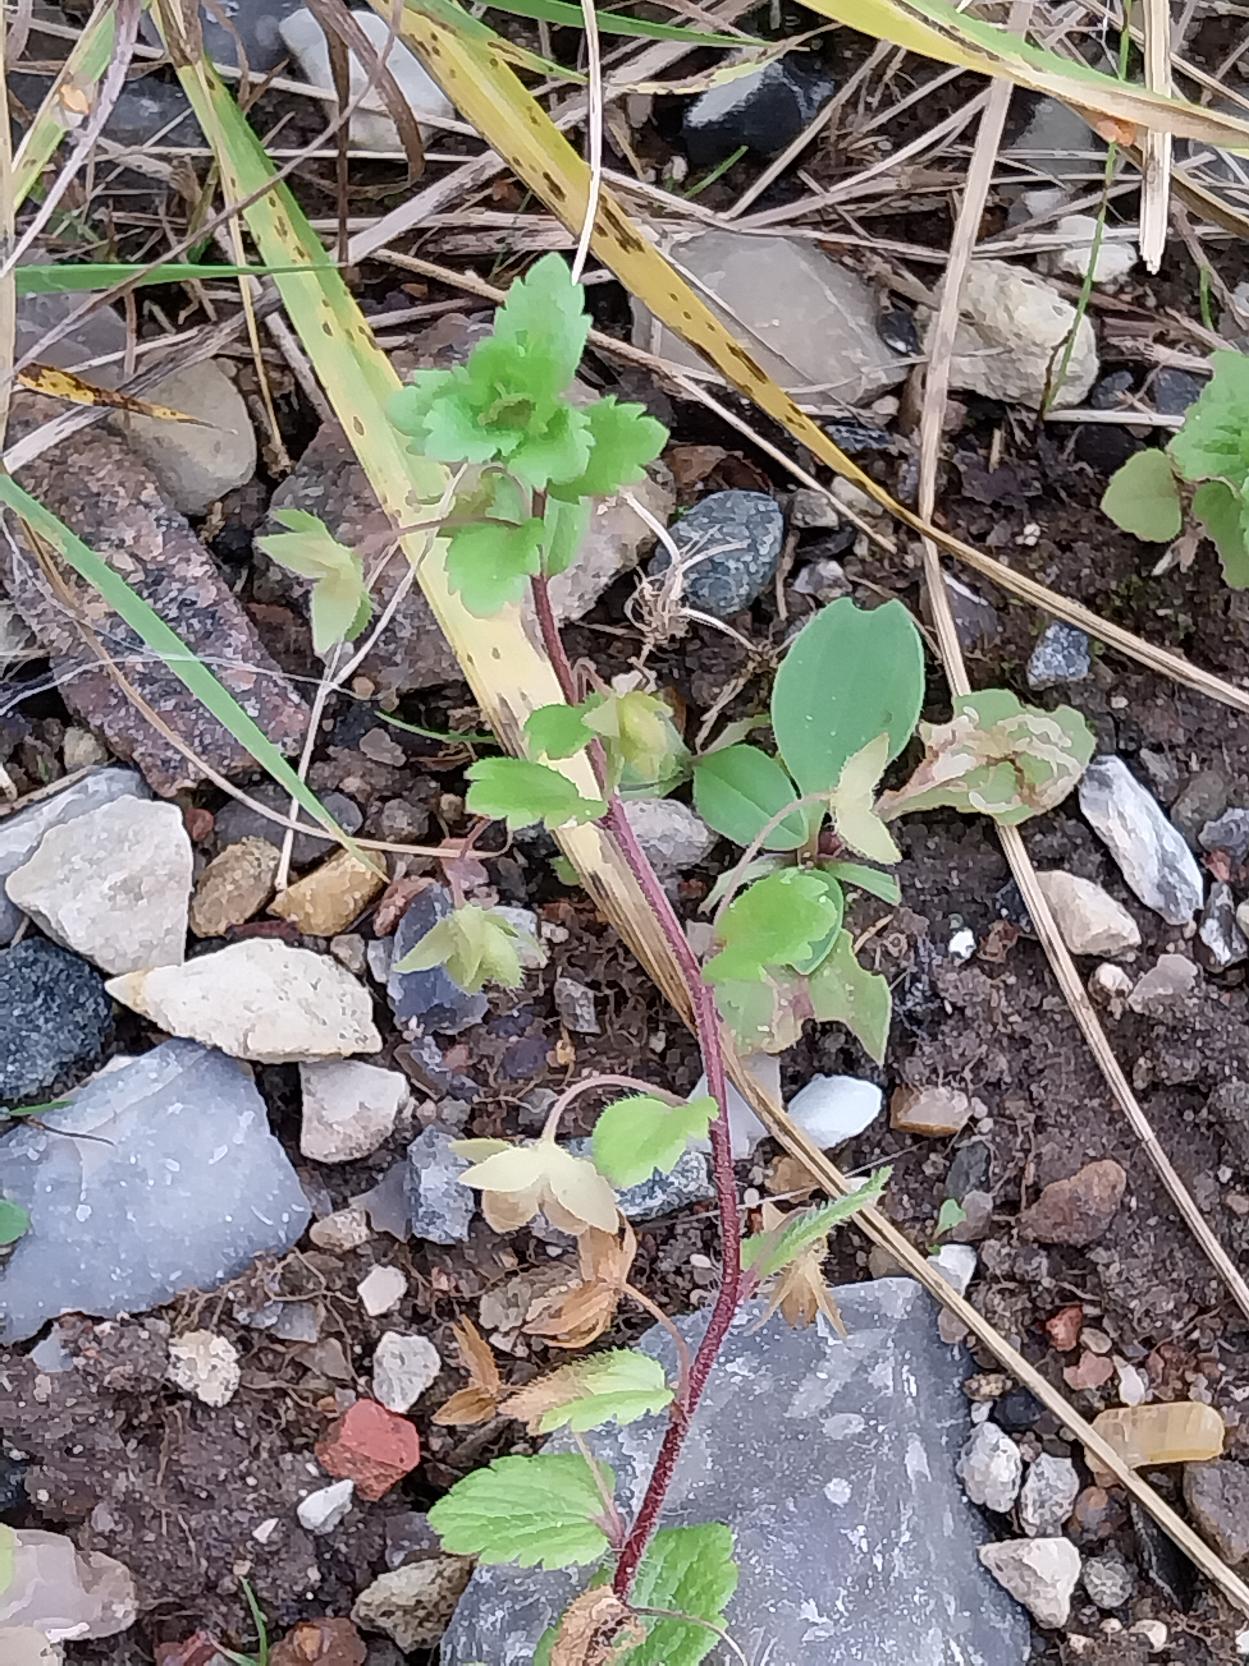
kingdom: Plantae
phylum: Tracheophyta
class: Magnoliopsida
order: Lamiales
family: Plantaginaceae
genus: Veronica
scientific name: Veronica persica
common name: Storkronet ærenpris
